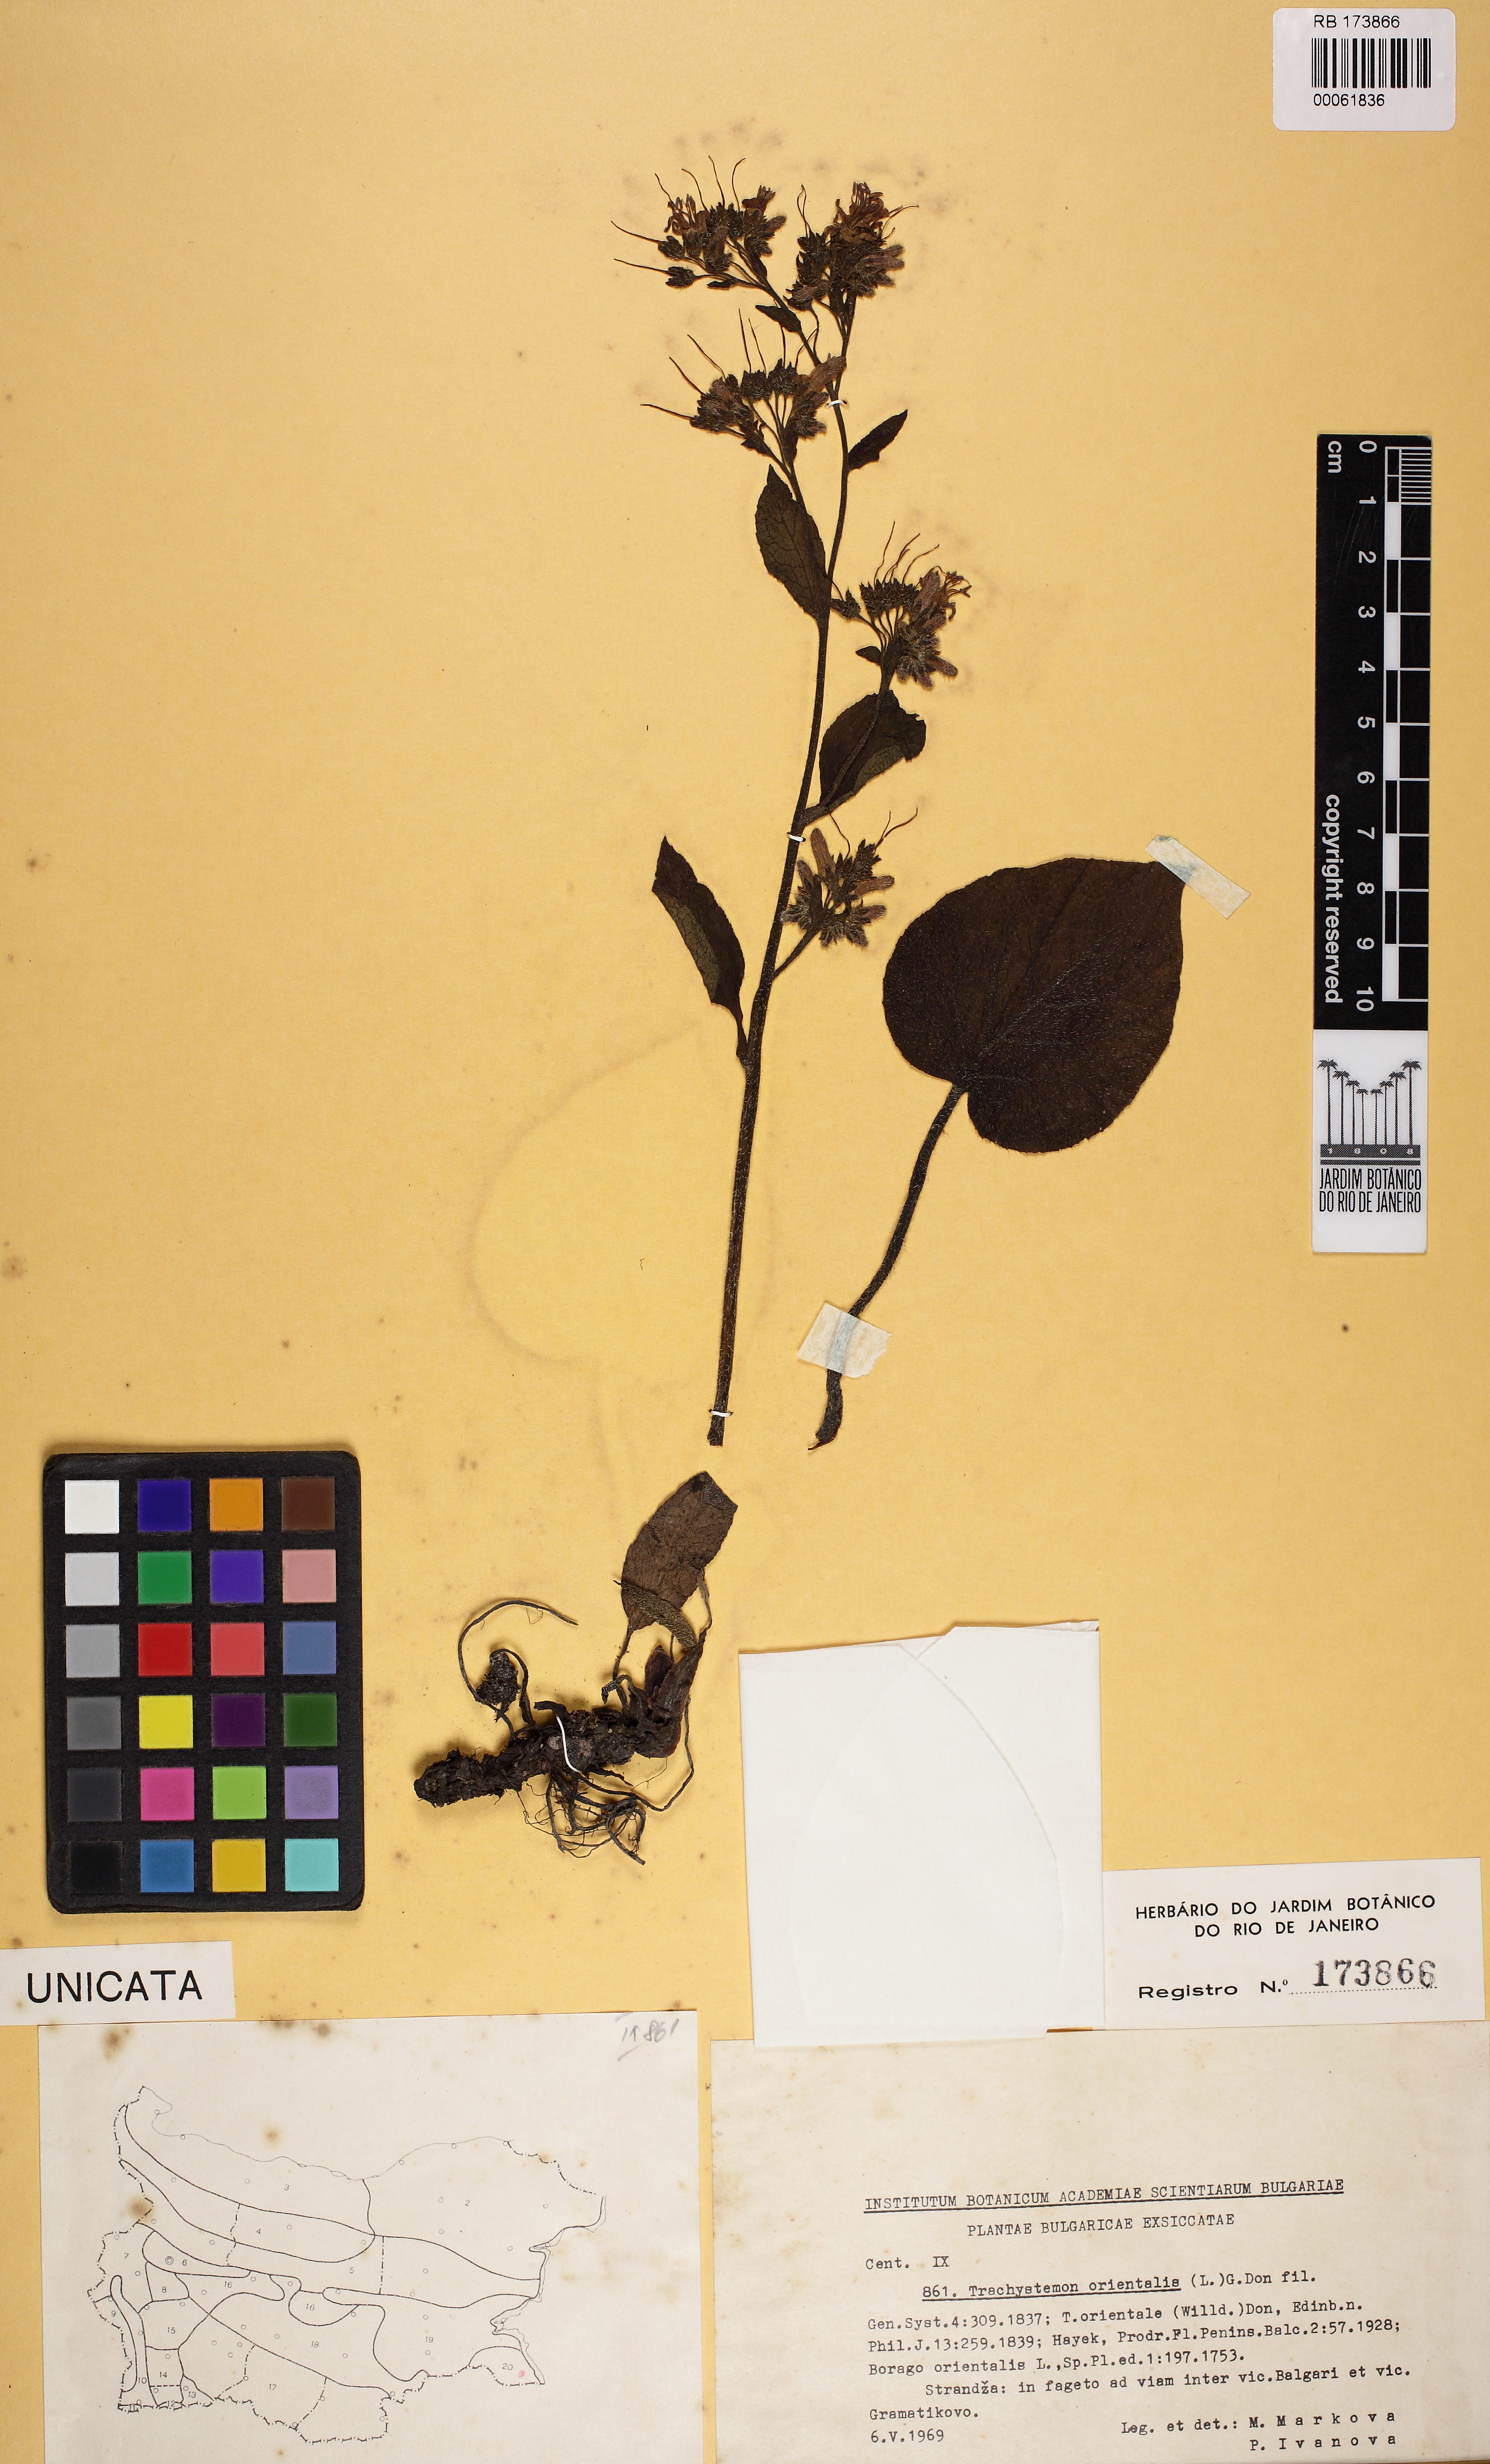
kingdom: Plantae
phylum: Tracheophyta
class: Magnoliopsida
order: Boraginales
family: Boraginaceae
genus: Trachystemon
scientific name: Trachystemon orientale
